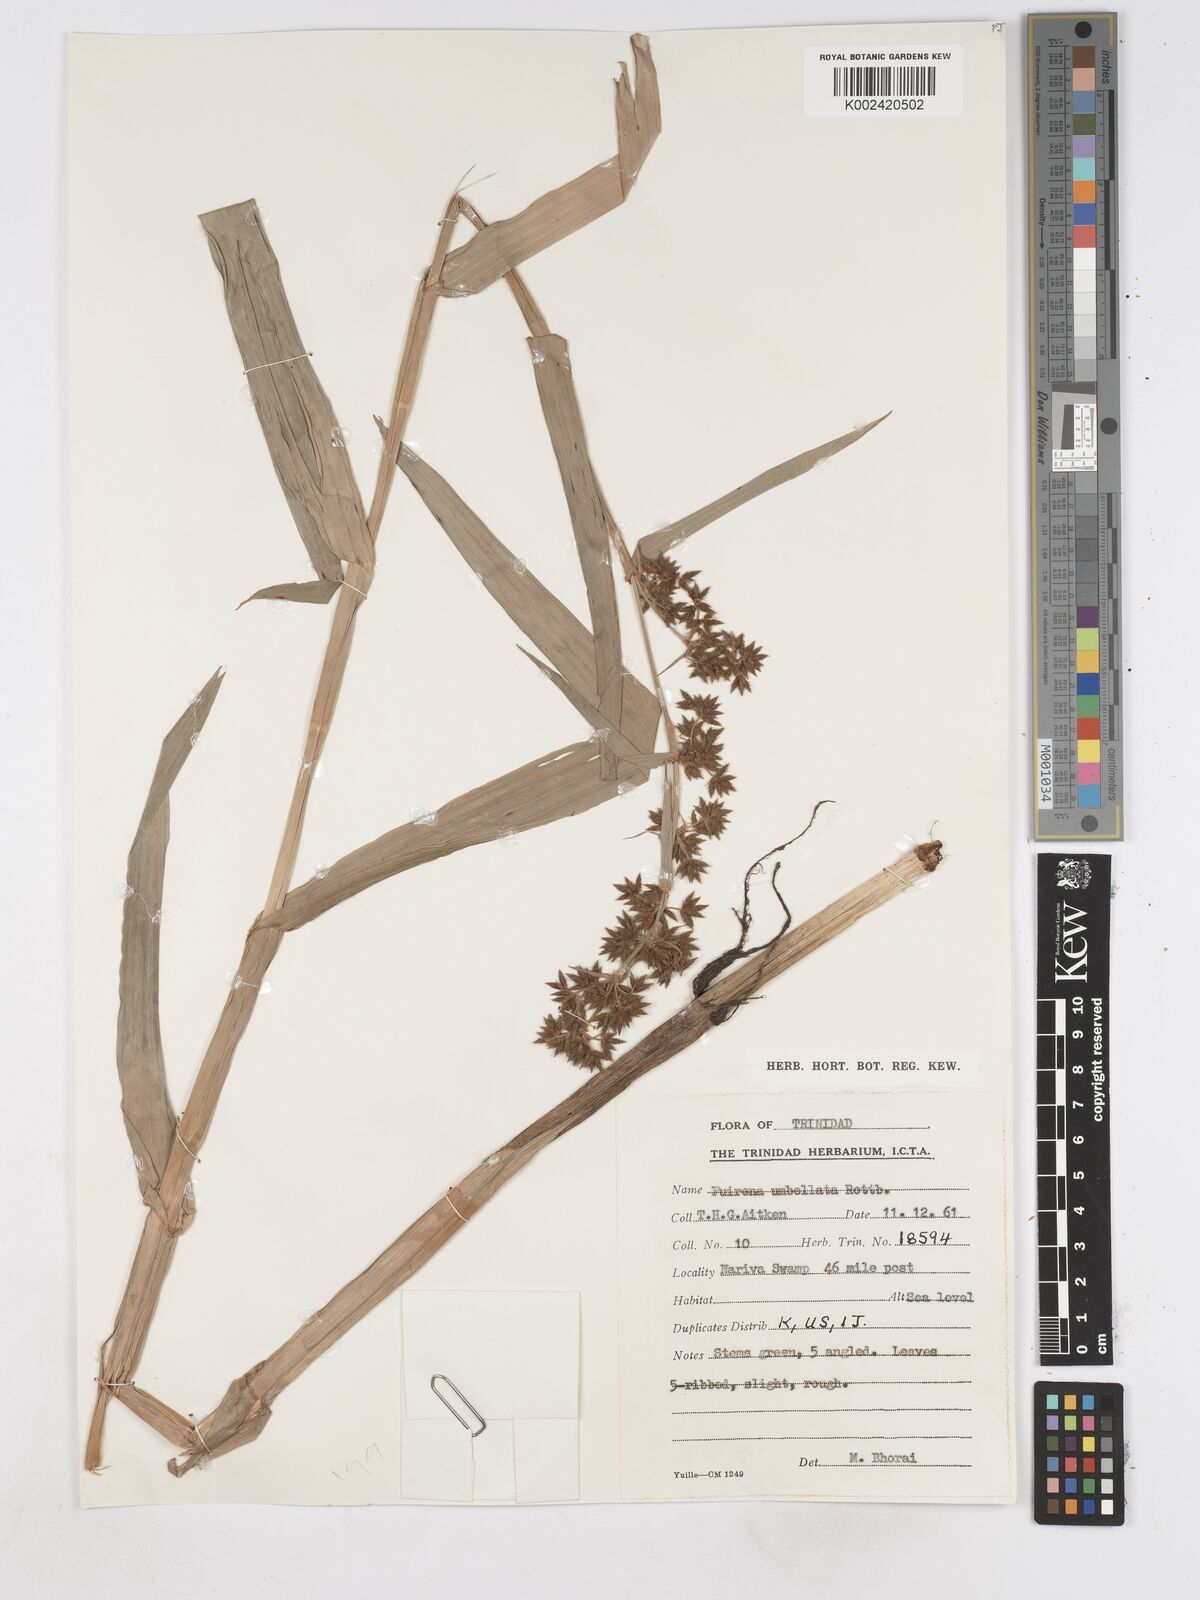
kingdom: Plantae
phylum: Tracheophyta
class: Liliopsida
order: Poales
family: Cyperaceae
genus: Fuirena
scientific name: Fuirena umbellata
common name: Yefen
